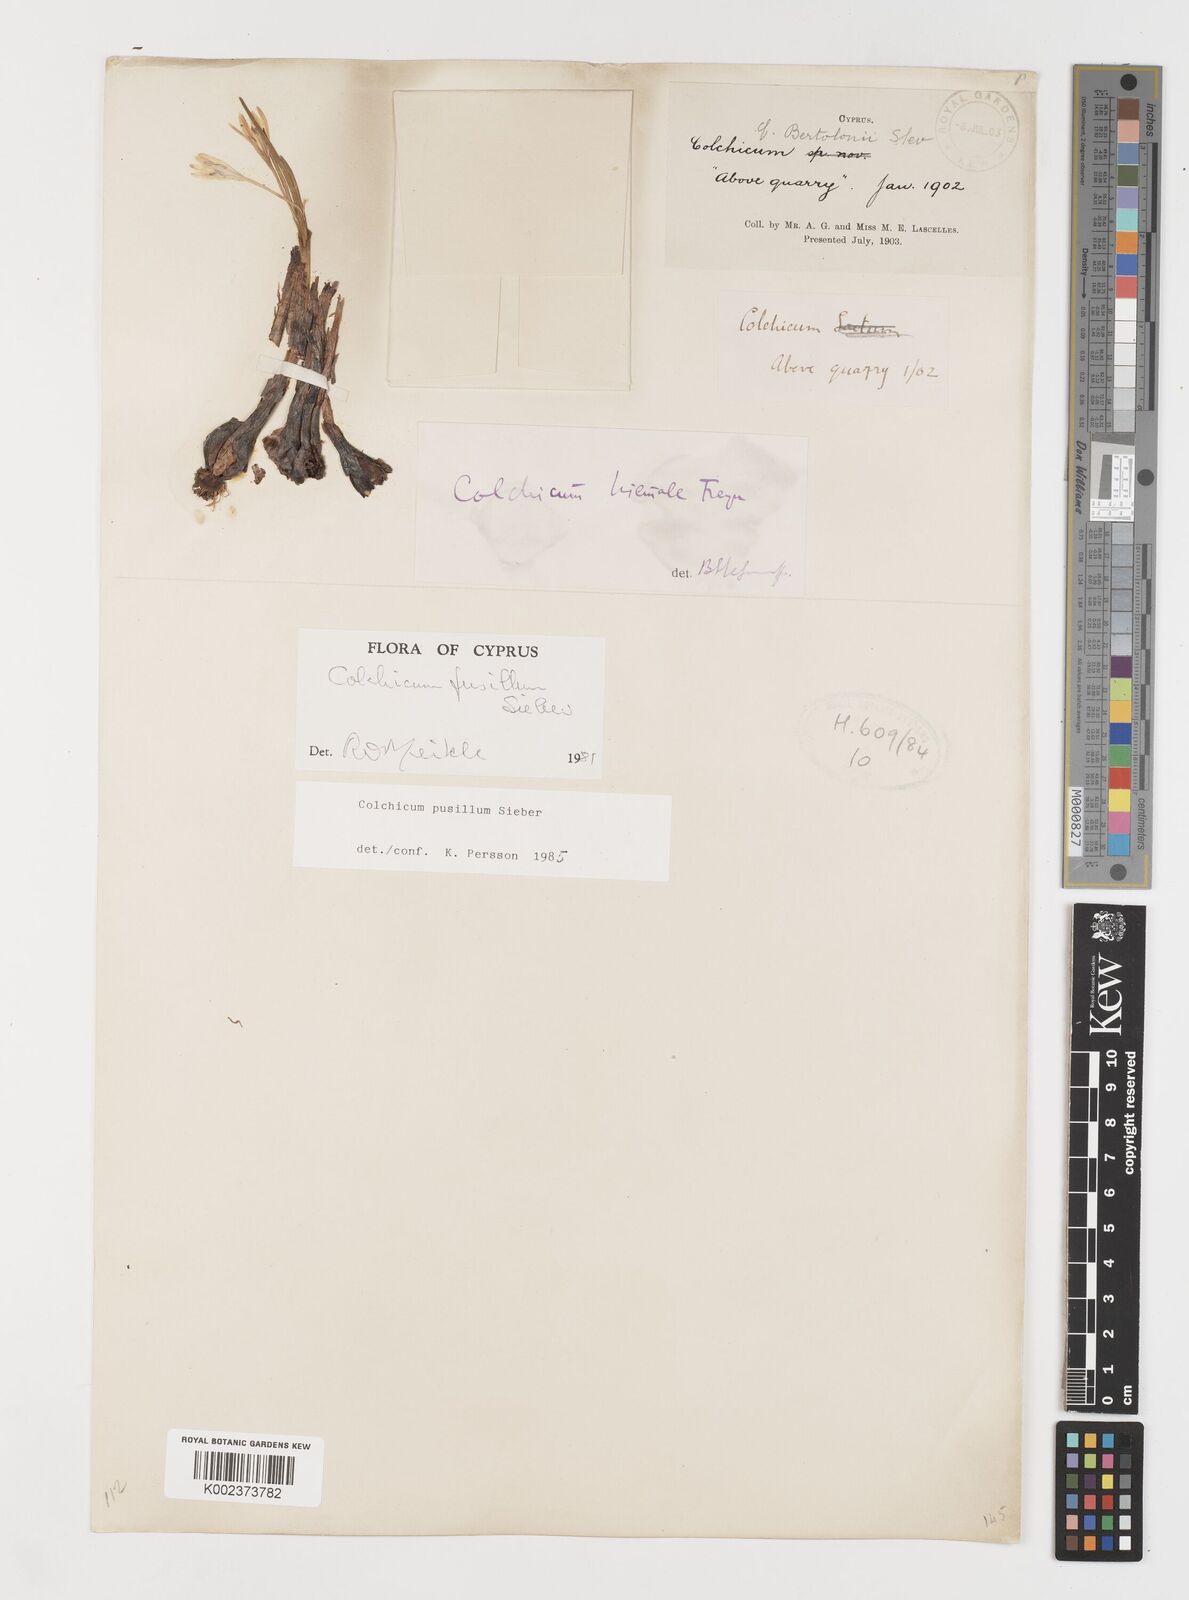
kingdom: Plantae
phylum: Tracheophyta
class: Liliopsida
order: Liliales
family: Colchicaceae
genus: Colchicum
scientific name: Colchicum pusillum
